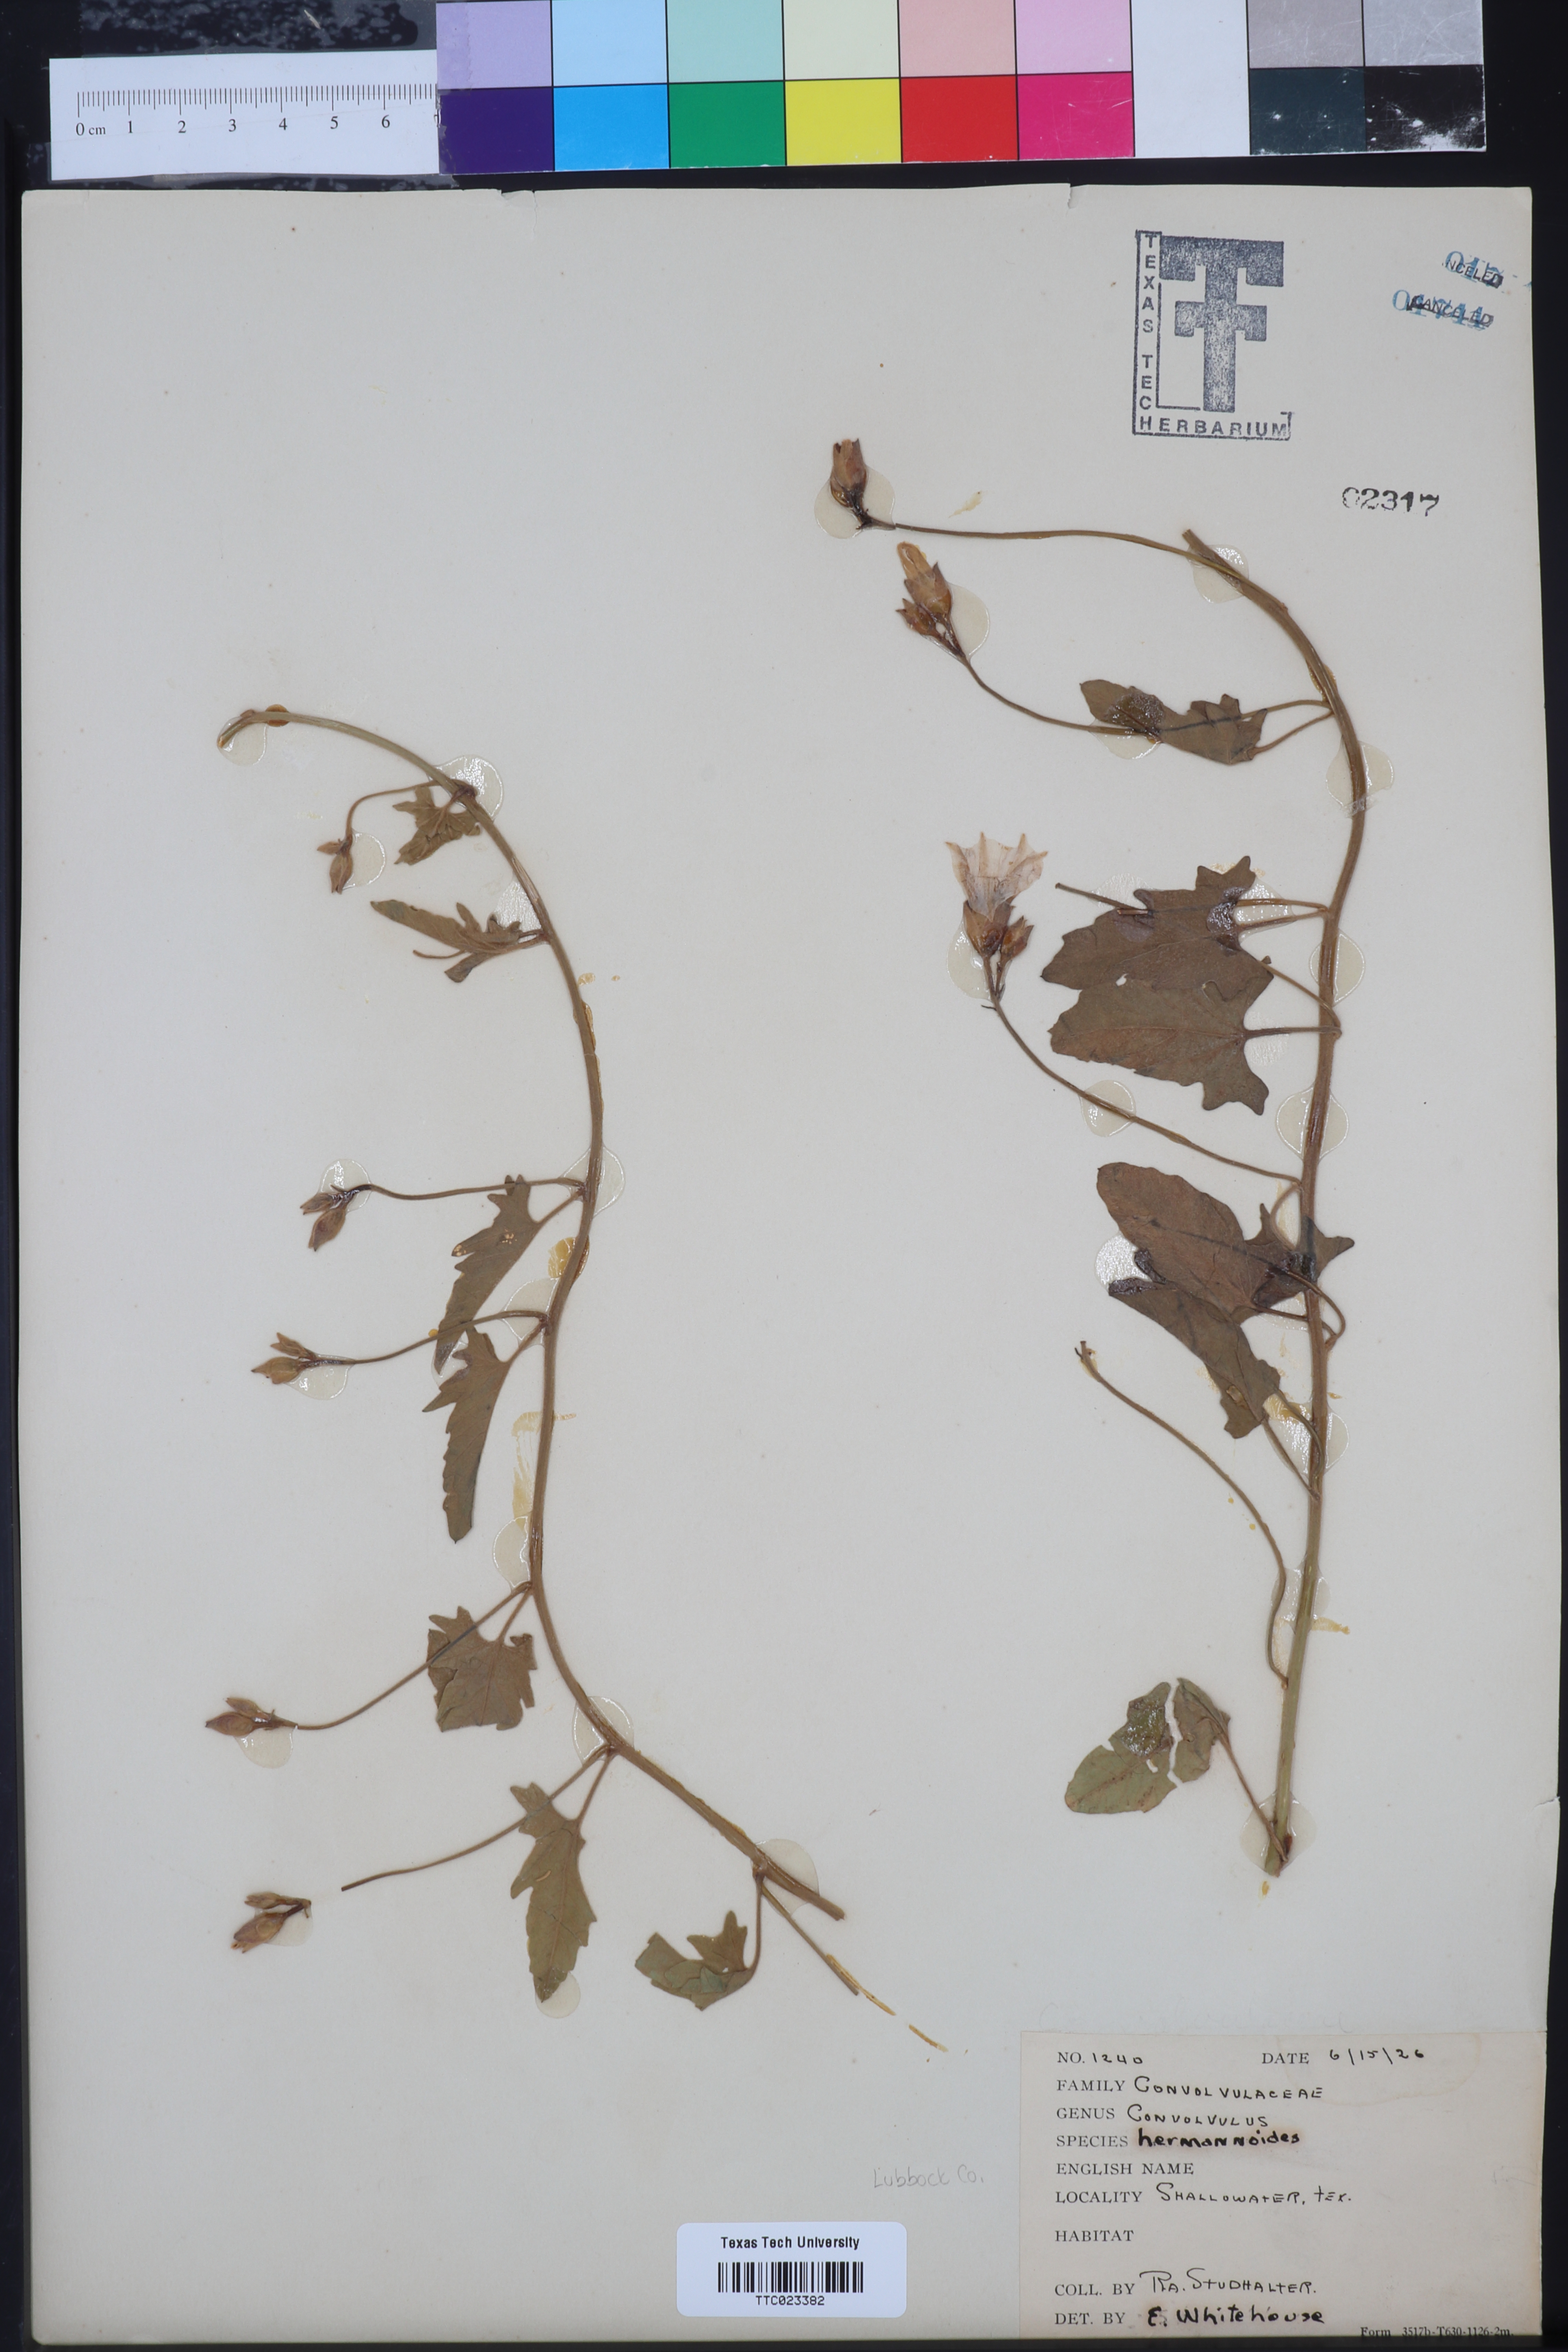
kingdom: Plantae
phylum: Tracheophyta
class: Magnoliopsida
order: Solanales
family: Convolvulaceae
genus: Convolvulus
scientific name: Convolvulus equitans
